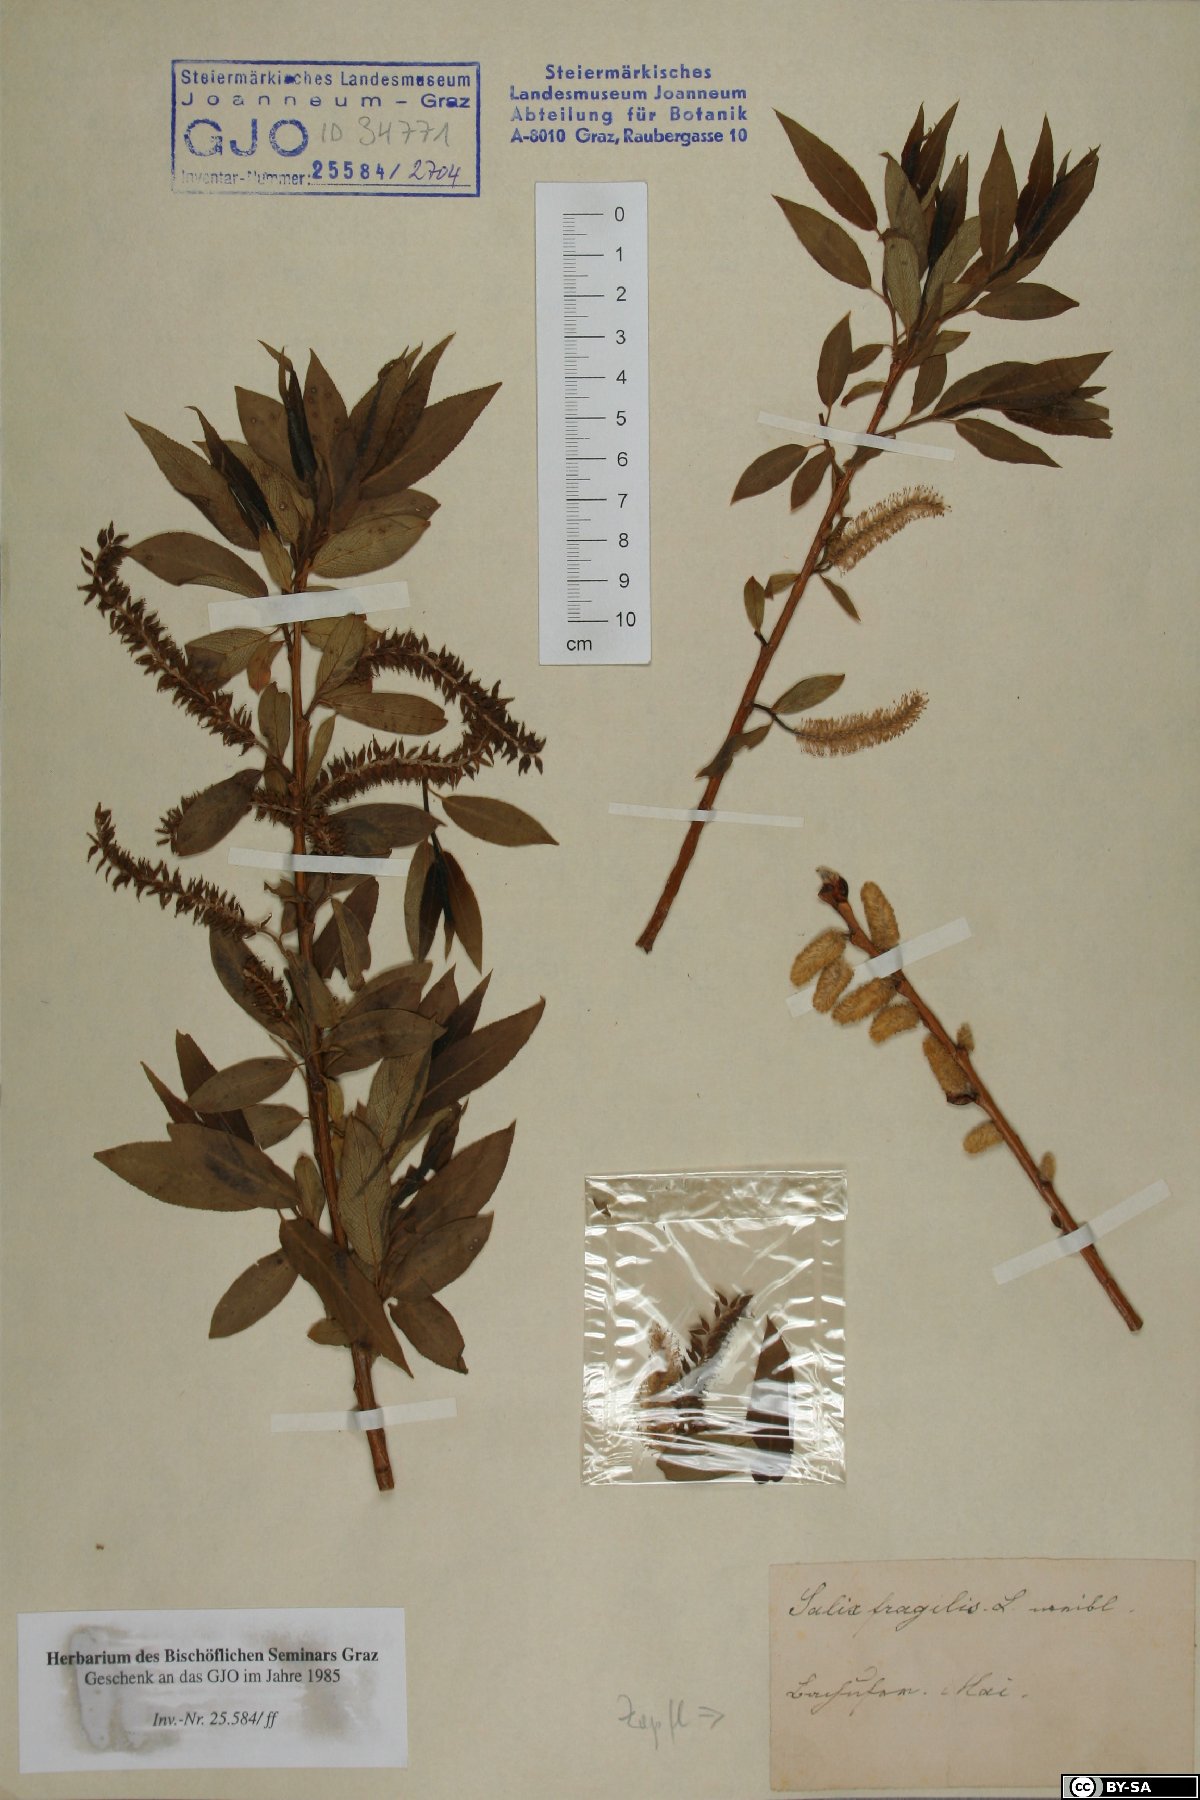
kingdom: Plantae
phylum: Tracheophyta
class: Magnoliopsida
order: Malpighiales
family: Salicaceae
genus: Salix
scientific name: Salix fragilis
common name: Crack willow
